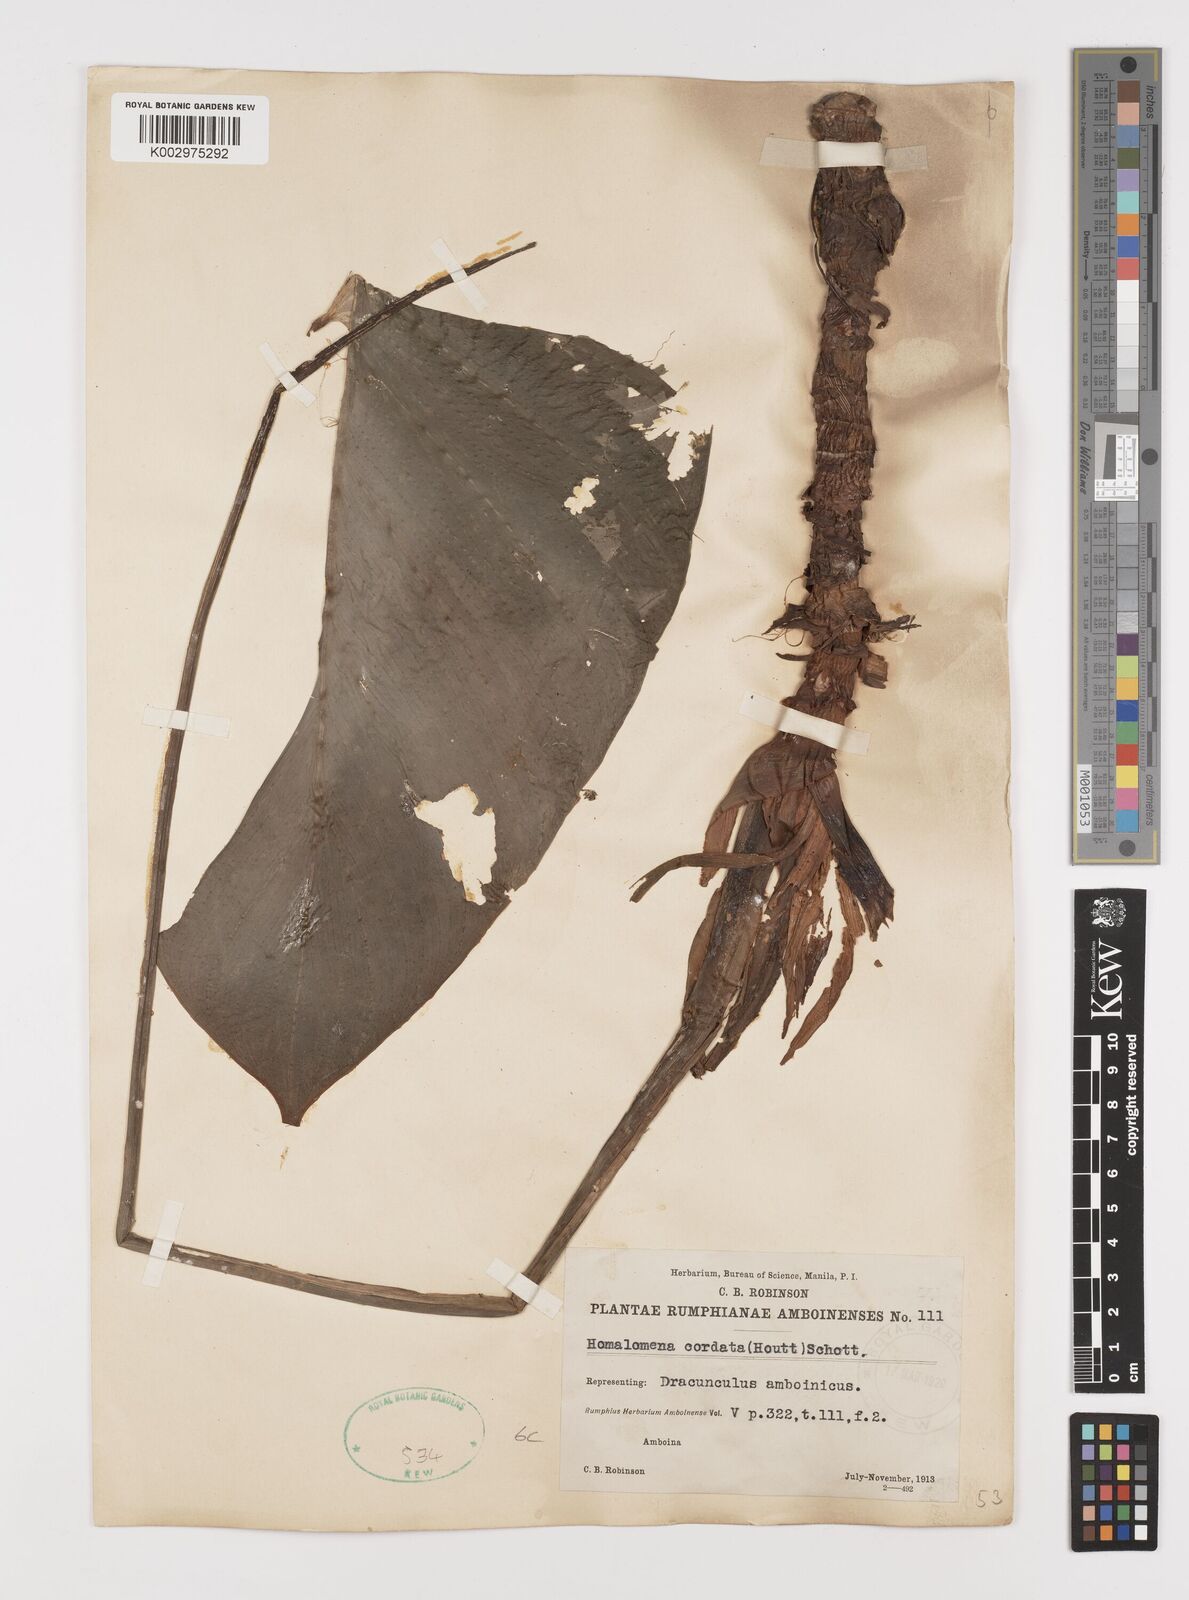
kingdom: Plantae
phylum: Tracheophyta
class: Liliopsida
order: Alismatales
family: Araceae
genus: Homalomena
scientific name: Homalomena cordata
